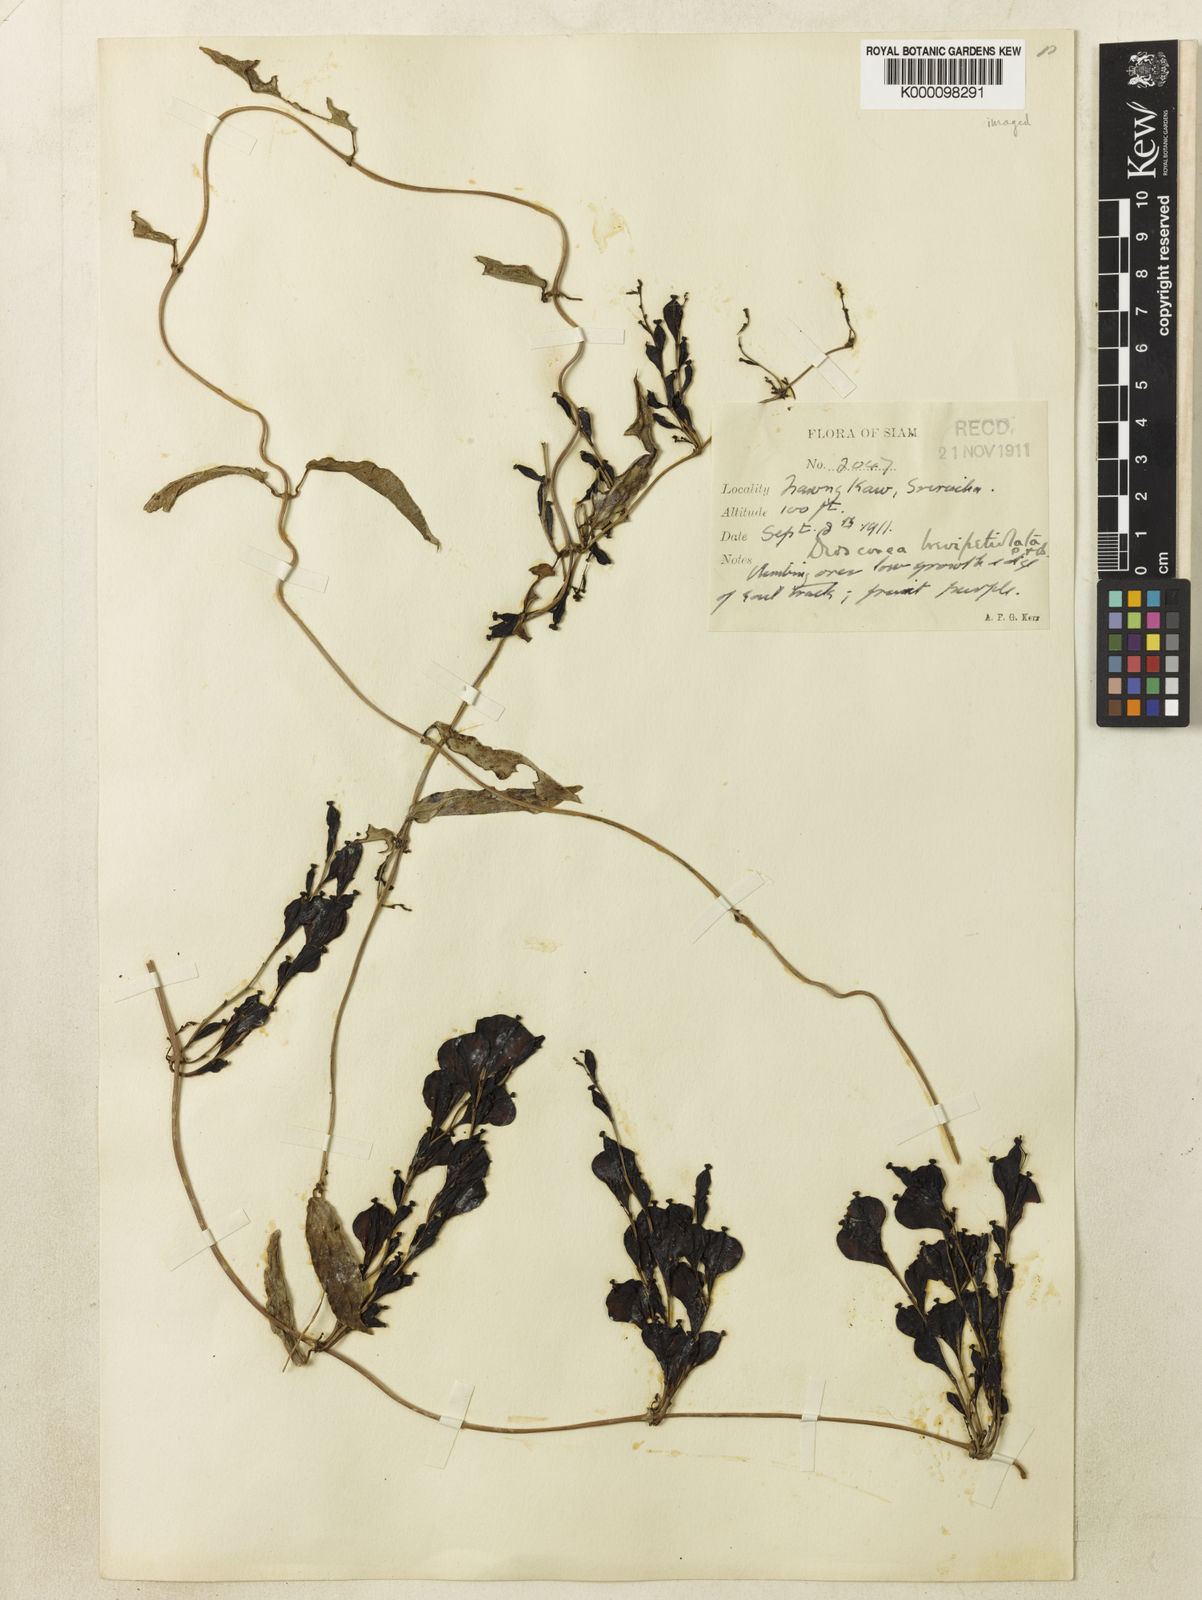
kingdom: Plantae
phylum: Tracheophyta
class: Liliopsida
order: Dioscoreales
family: Dioscoreaceae
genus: Dioscorea
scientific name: Dioscorea brevipetiolata
